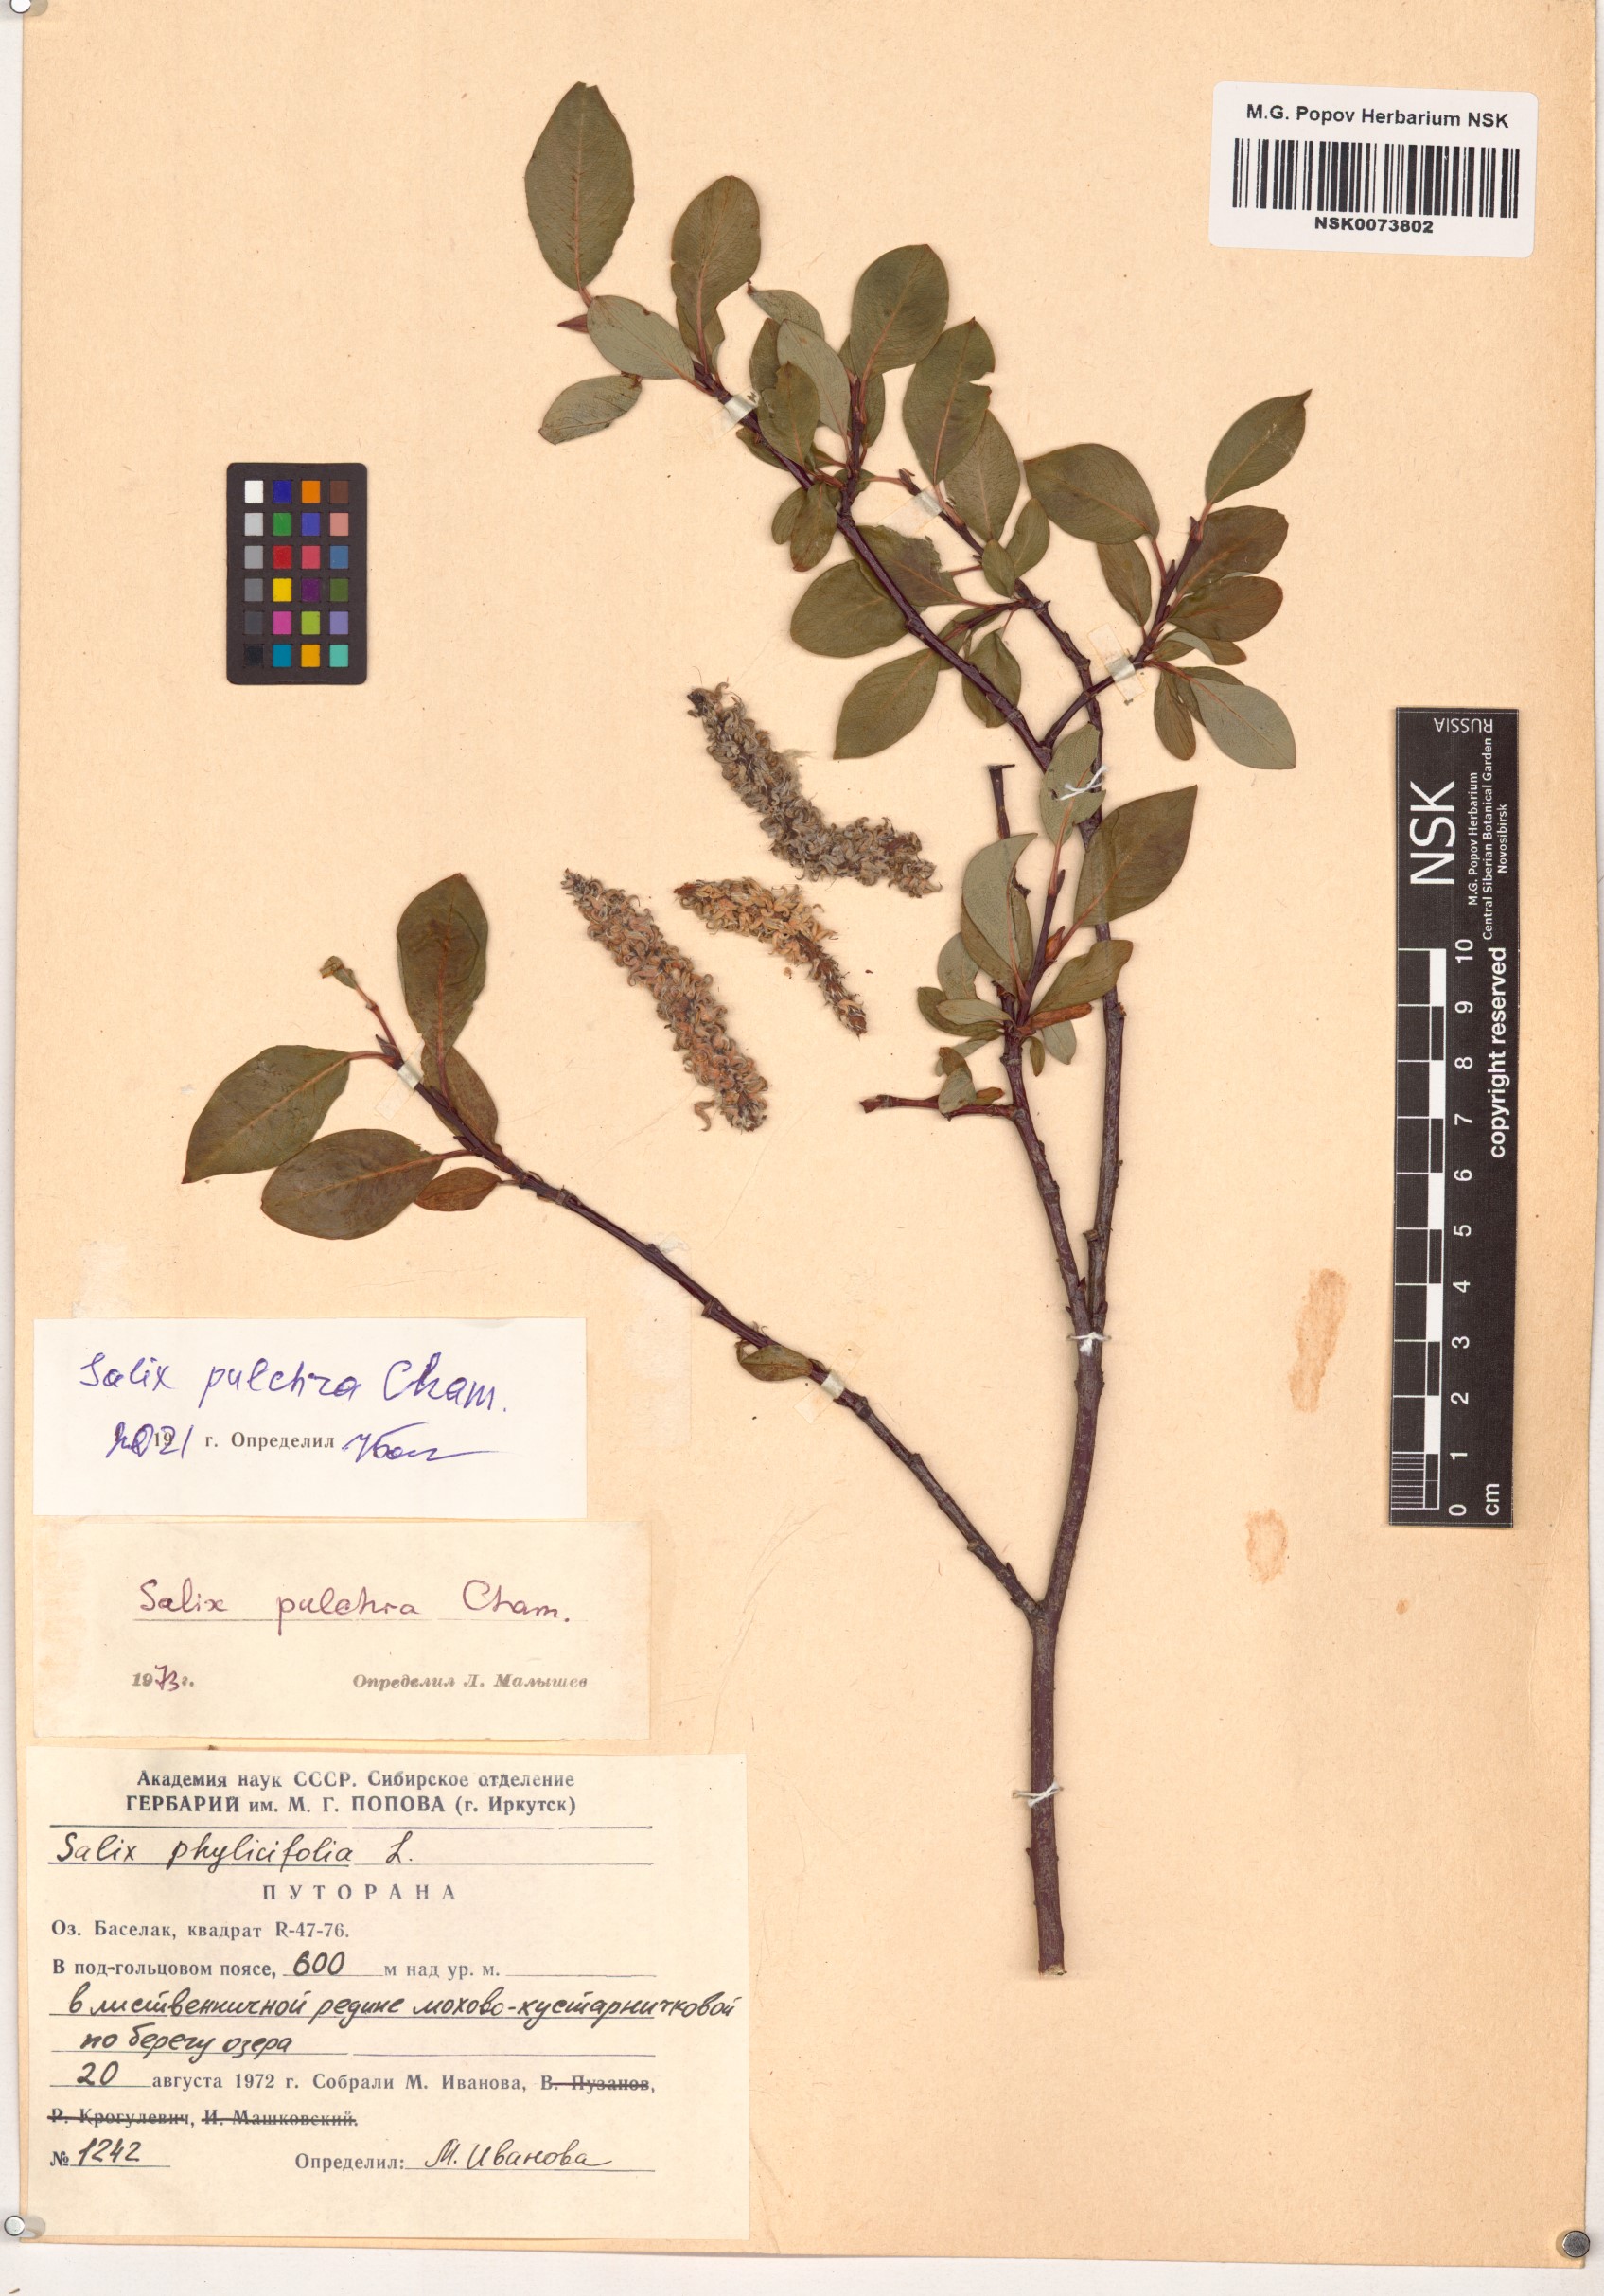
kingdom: Plantae
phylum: Tracheophyta
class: Magnoliopsida
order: Malpighiales
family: Salicaceae
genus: Salix
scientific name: Salix pulchra
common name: Diamond-leaved willow
